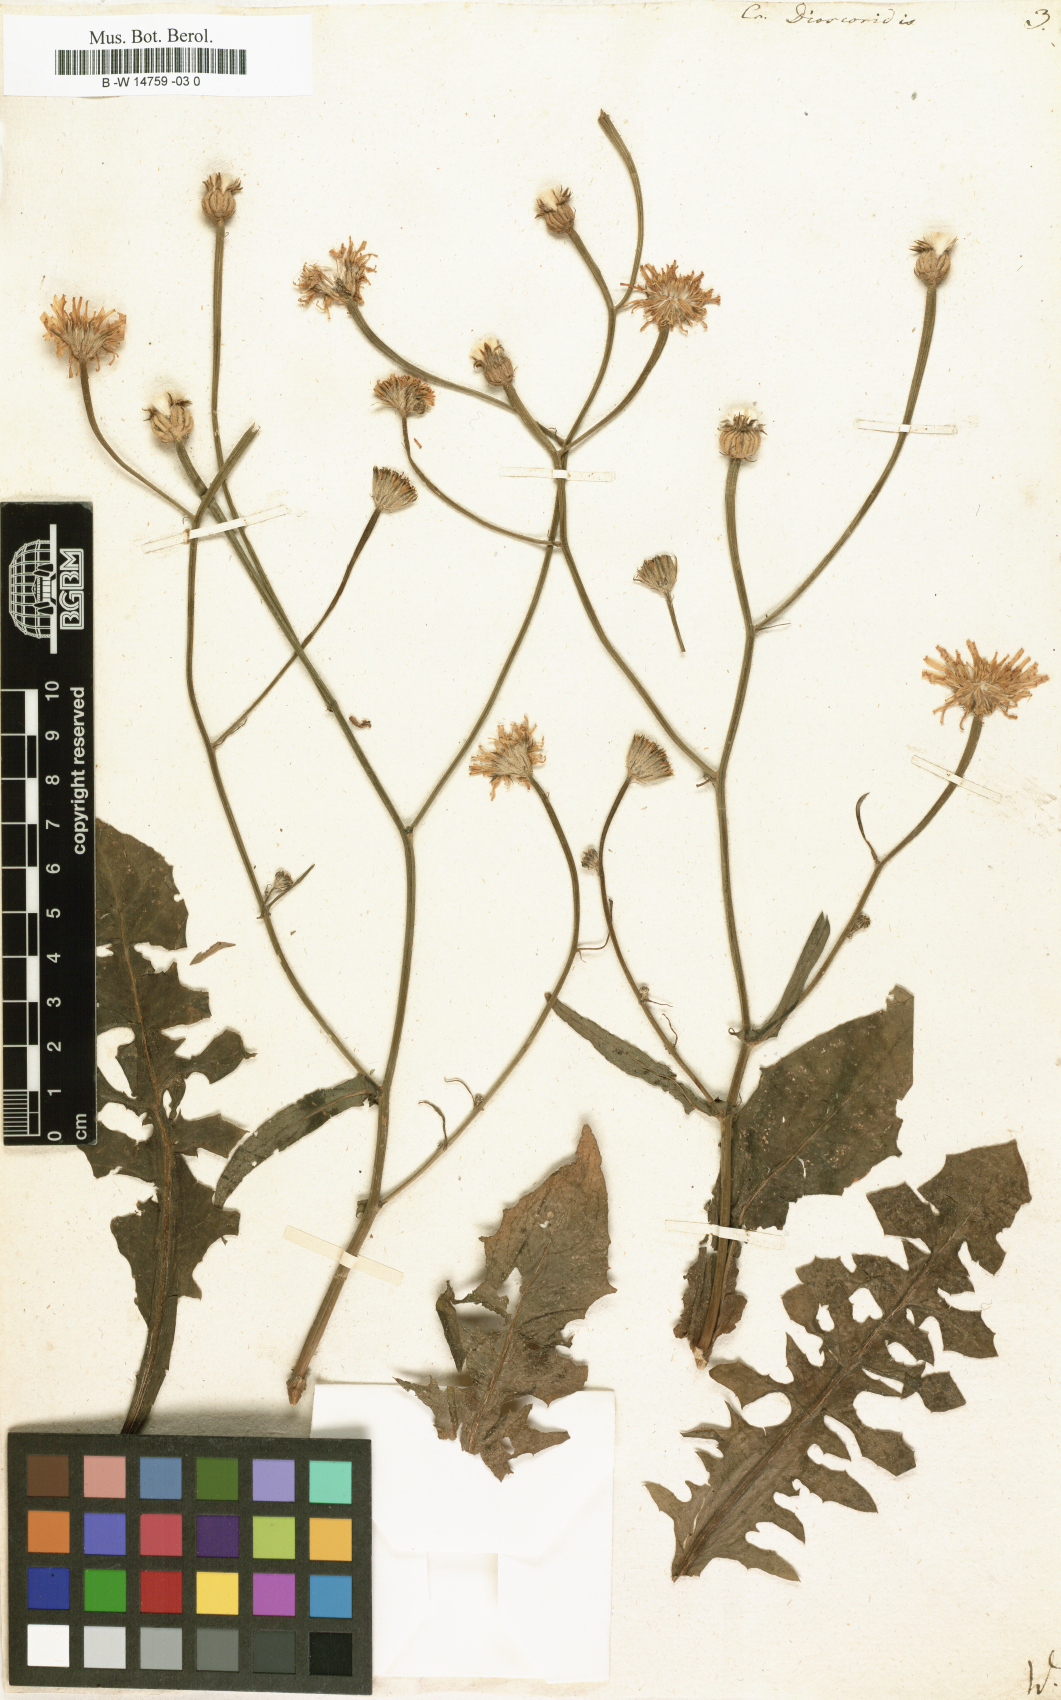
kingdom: Plantae
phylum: Tracheophyta
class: Magnoliopsida
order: Asterales
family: Asteraceae
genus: Crepis
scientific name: Crepis dioscoridis
